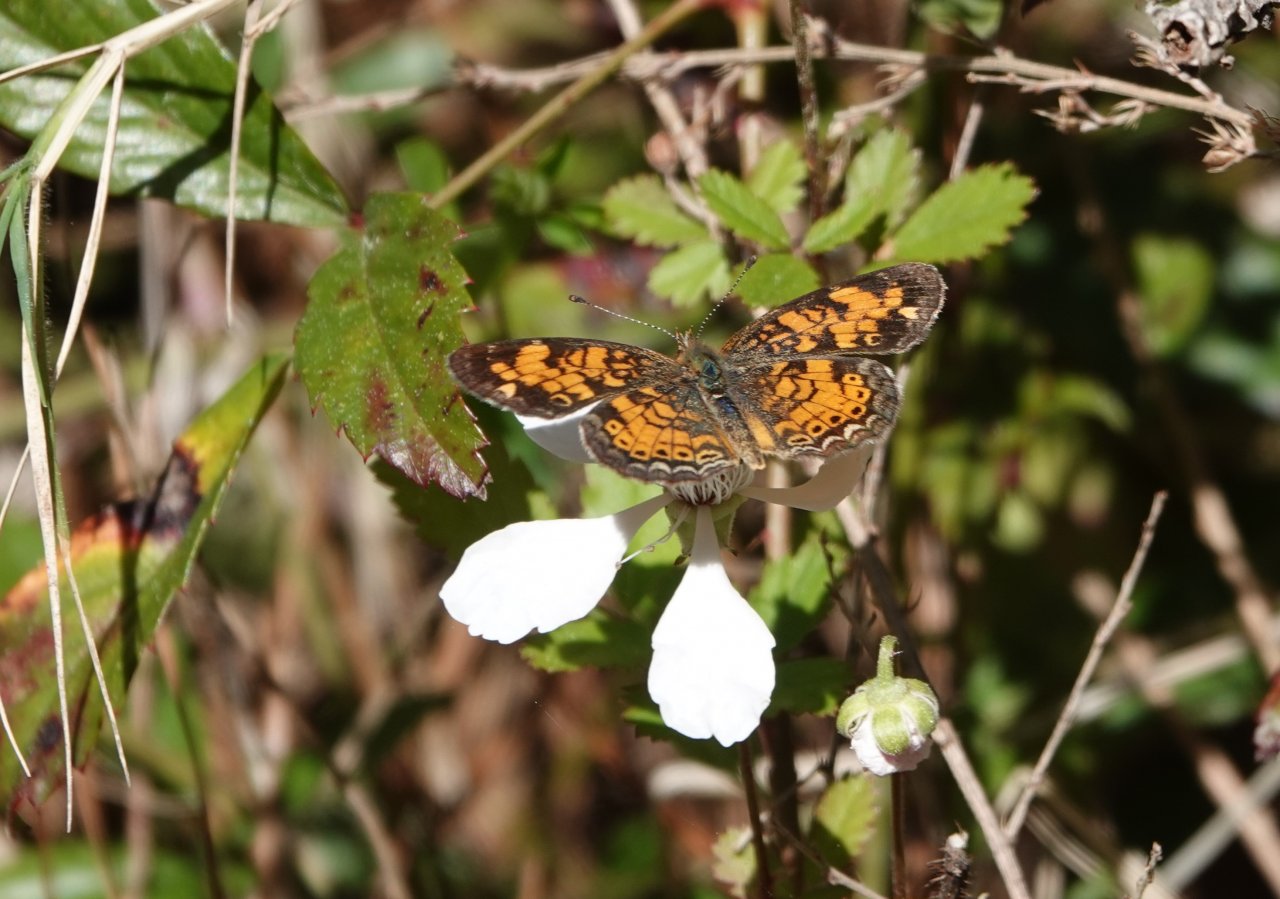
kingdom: Animalia
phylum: Arthropoda
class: Insecta
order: Lepidoptera
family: Nymphalidae
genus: Phyciodes
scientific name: Phyciodes tharos
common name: Pearl Crescent
